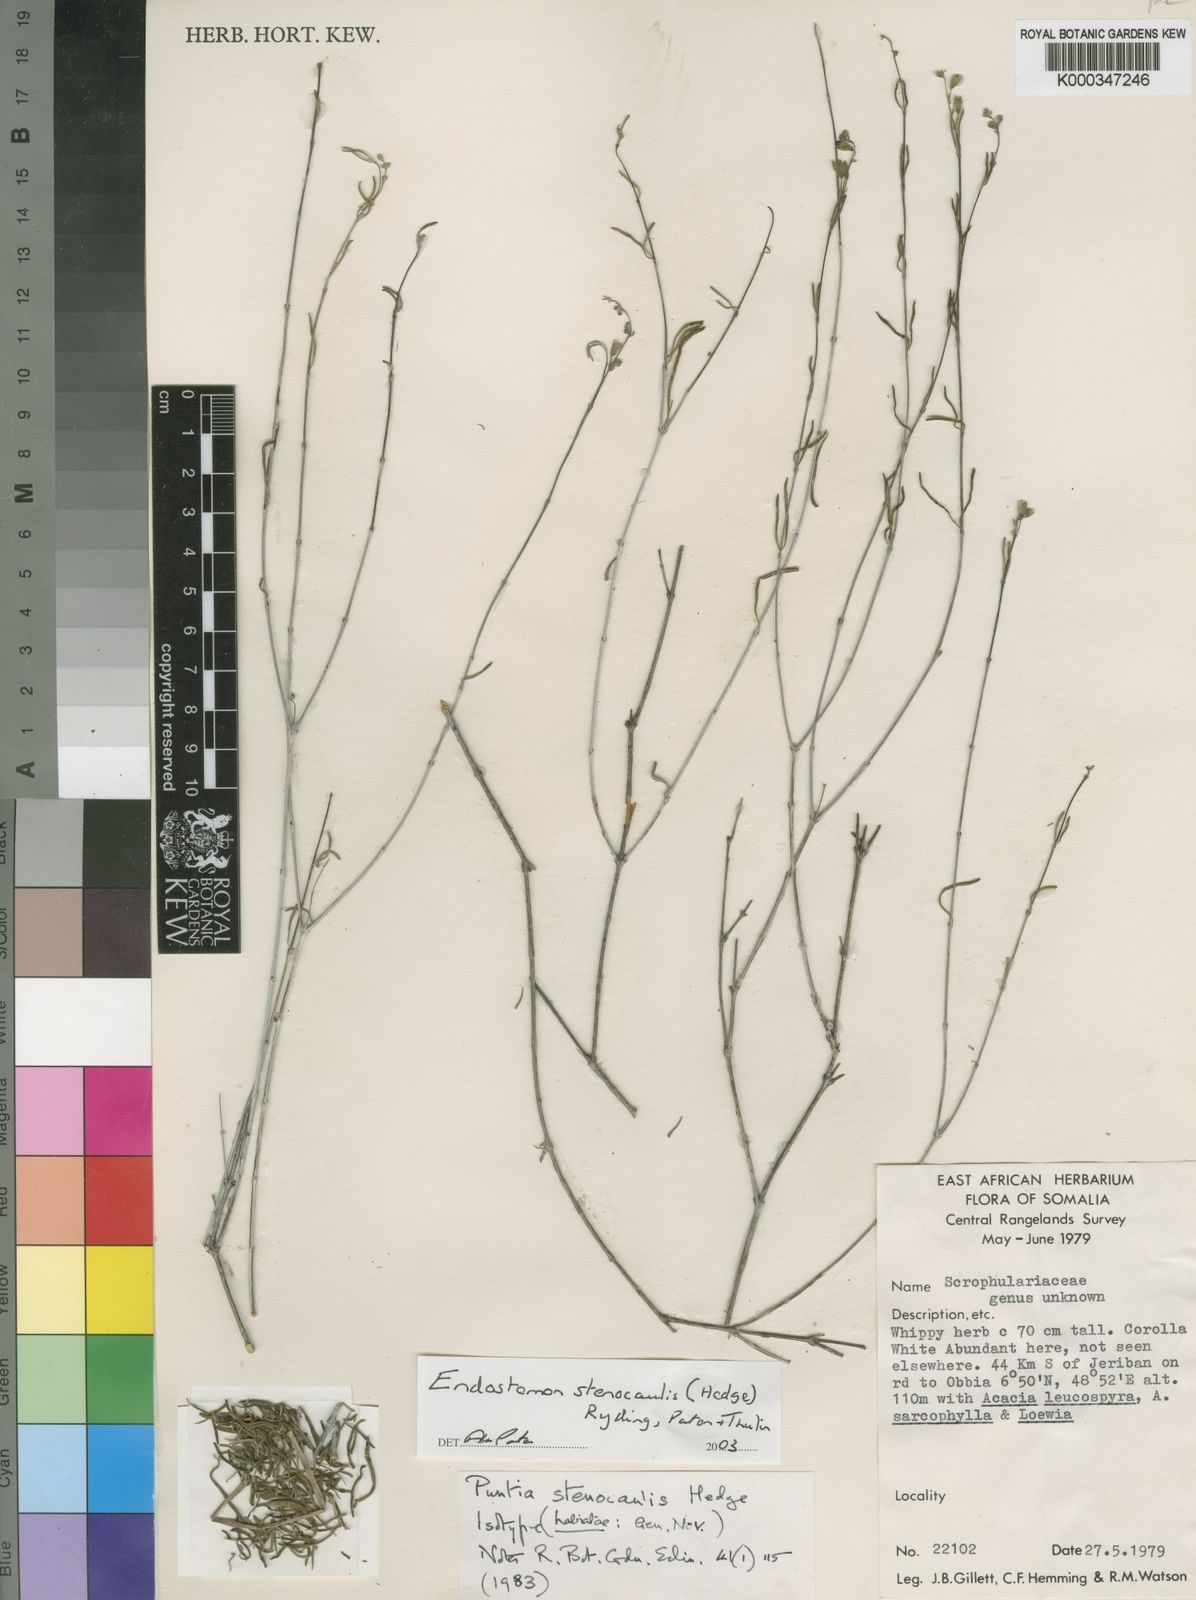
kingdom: Plantae
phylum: Tracheophyta
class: Magnoliopsida
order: Lamiales
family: Lamiaceae
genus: Endostemon
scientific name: Endostemon
